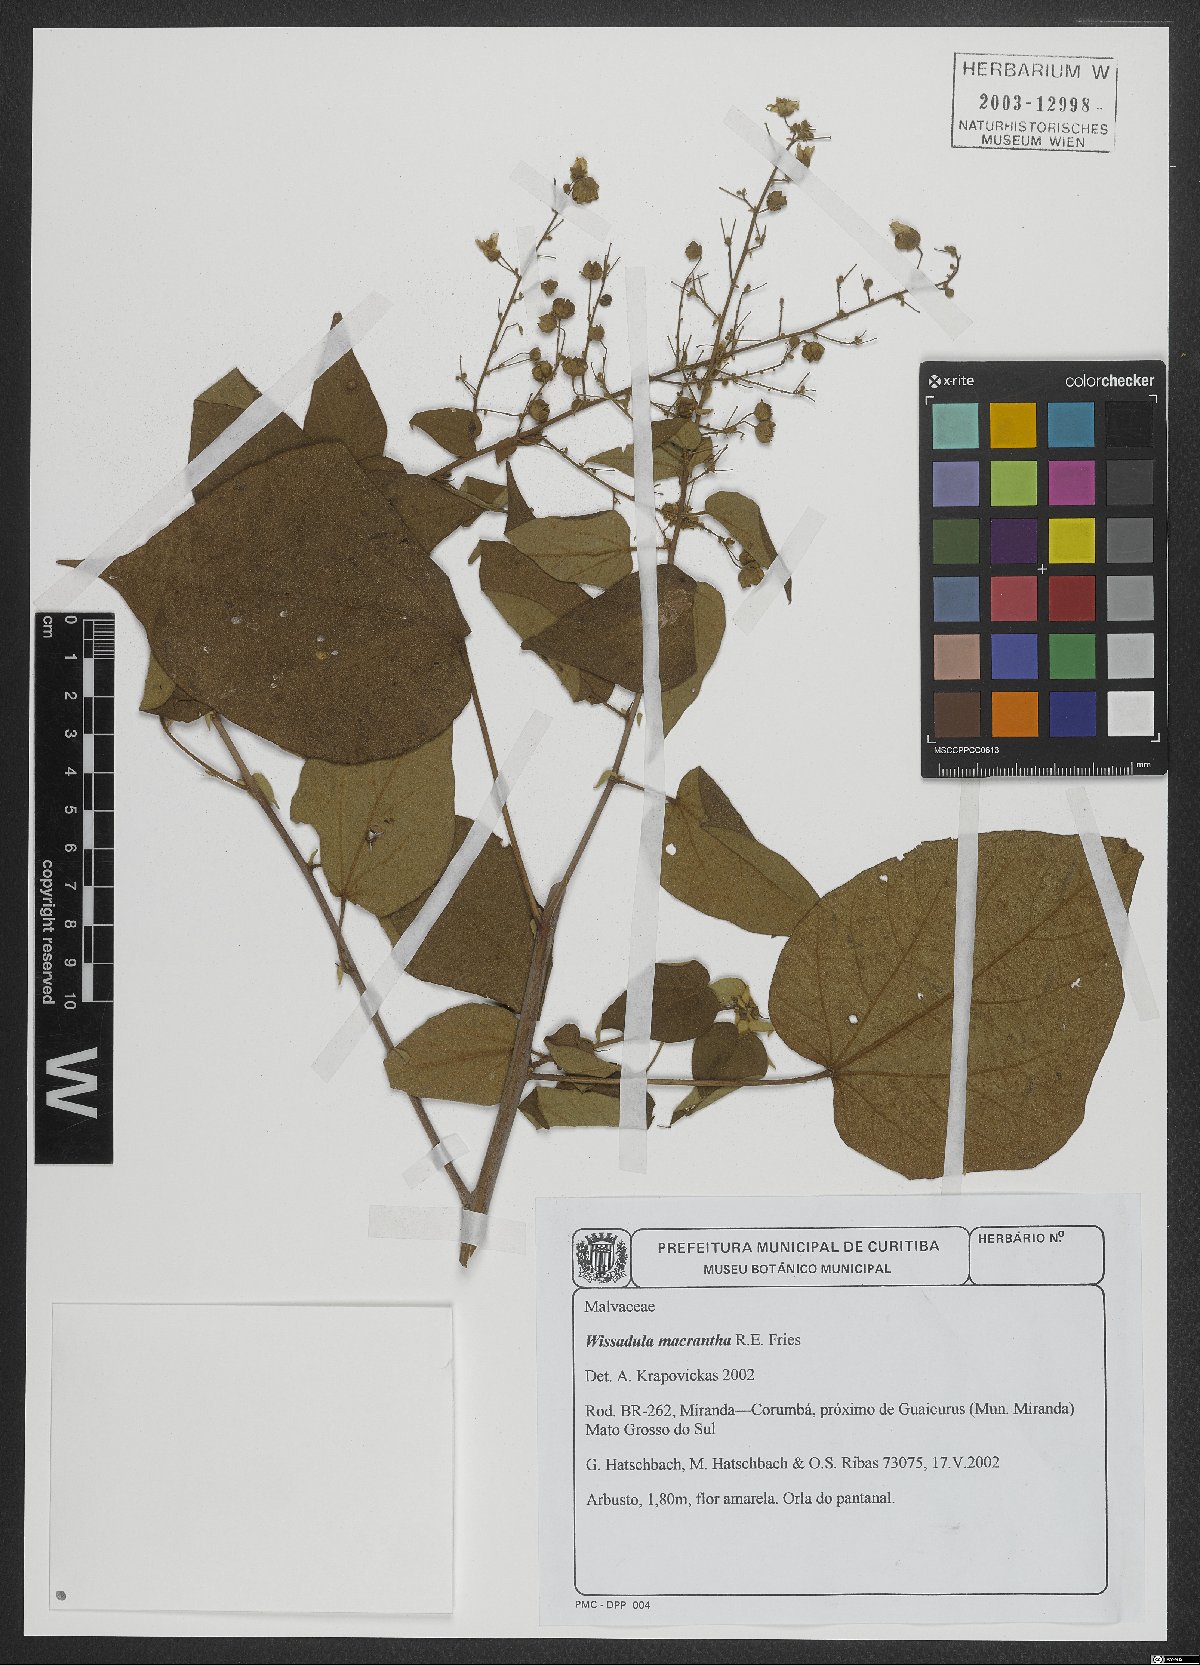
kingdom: Plantae
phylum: Tracheophyta
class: Magnoliopsida
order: Malvales
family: Malvaceae
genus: Wissadula
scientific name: Wissadula grandifolia
